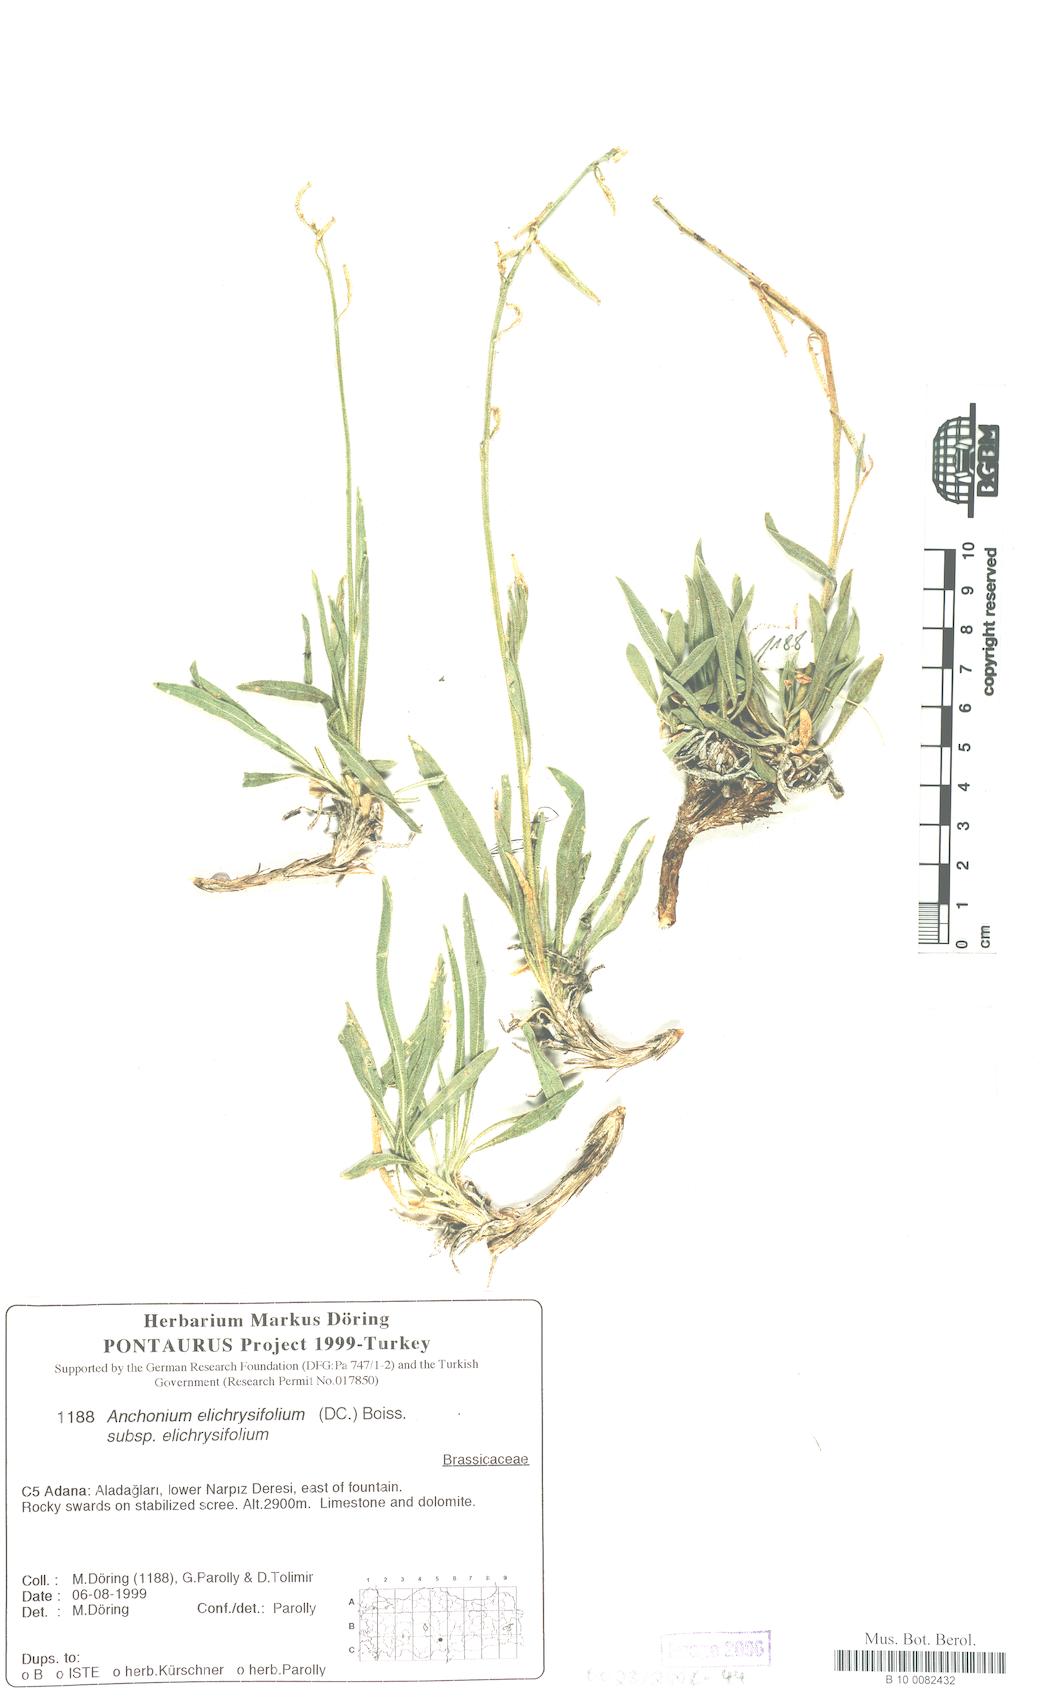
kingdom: Plantae
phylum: Tracheophyta
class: Magnoliopsida
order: Brassicales
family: Brassicaceae
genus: Anchonium
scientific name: Anchonium elichrysifolium
